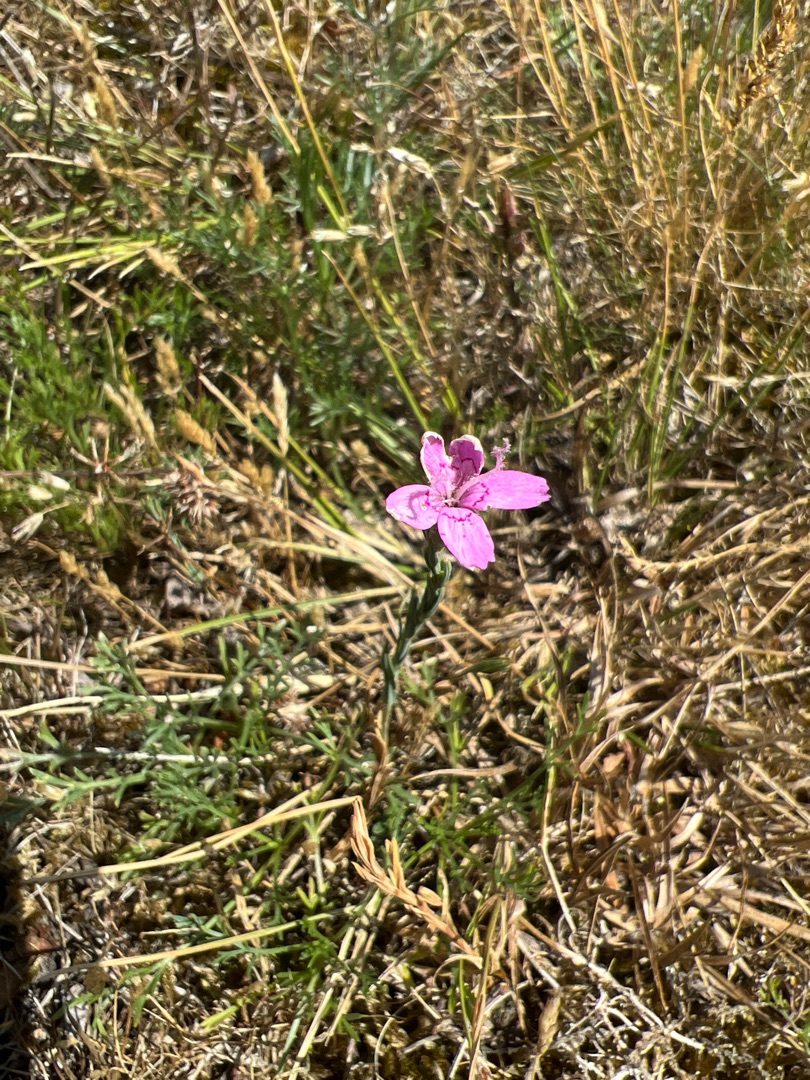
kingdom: Plantae
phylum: Tracheophyta
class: Magnoliopsida
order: Caryophyllales
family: Caryophyllaceae
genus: Dianthus
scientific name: Dianthus deltoides
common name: Bakke-nellike
